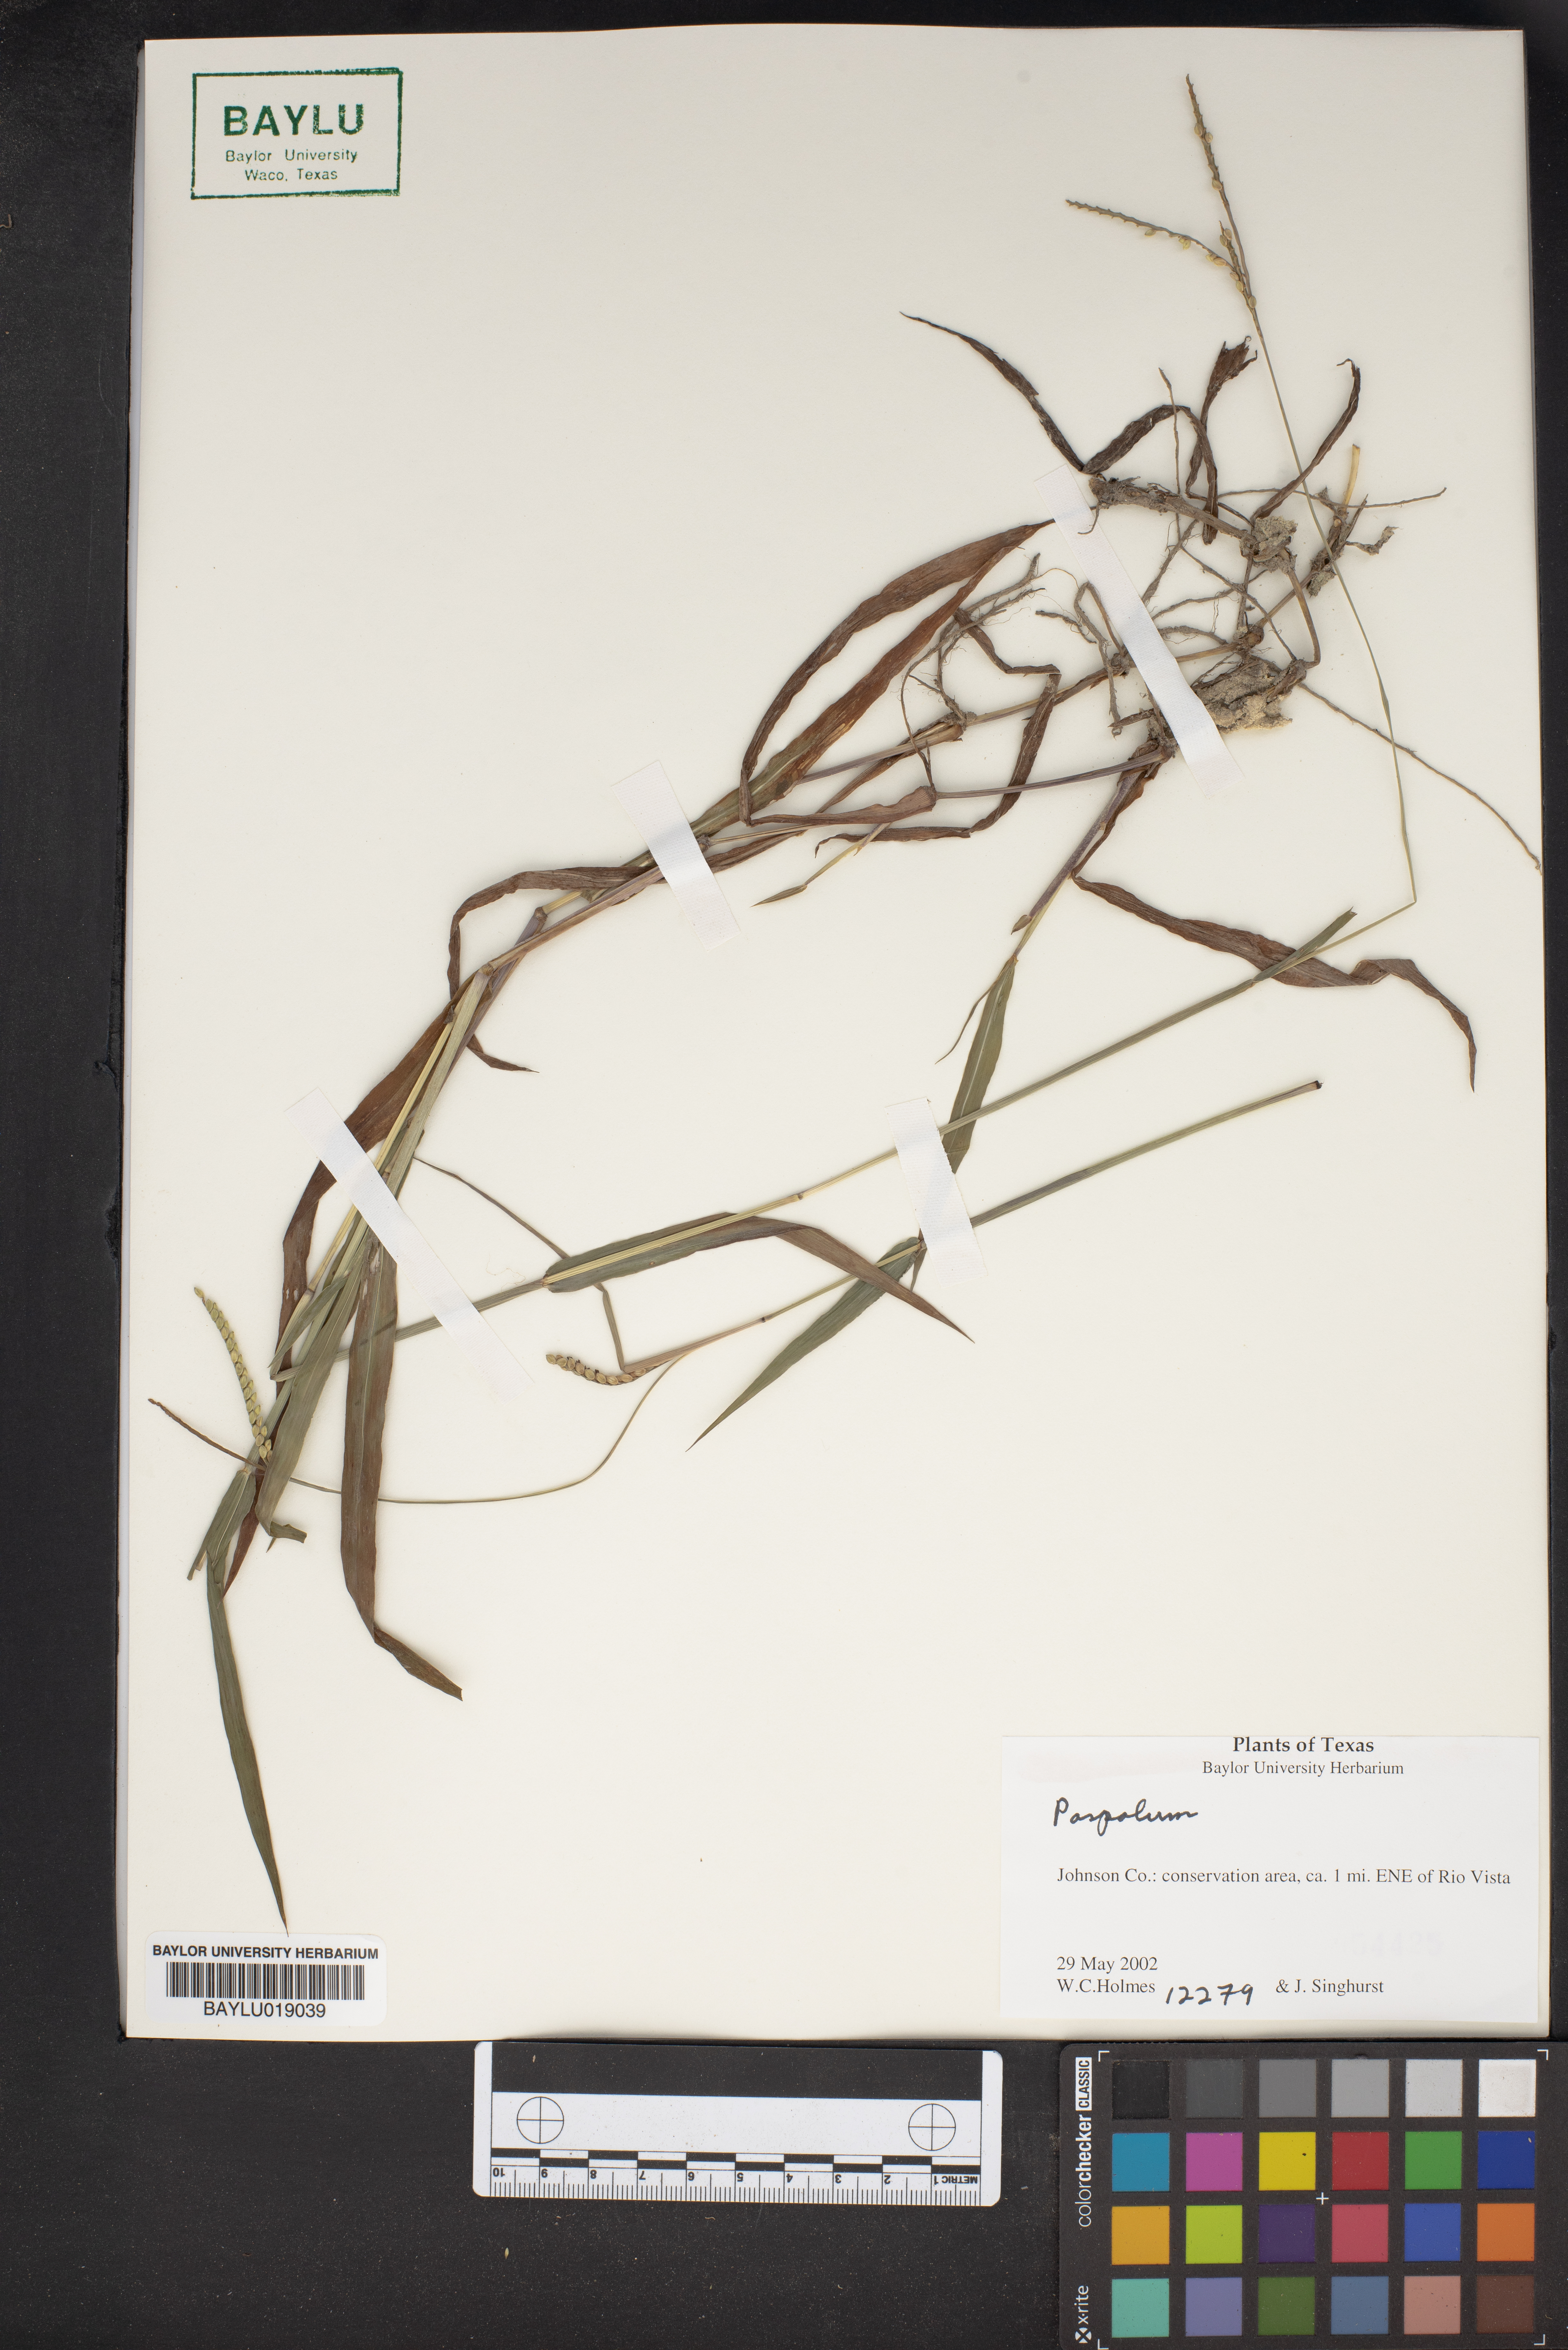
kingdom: Plantae
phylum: Tracheophyta
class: Liliopsida
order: Poales
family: Poaceae
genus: Paspalum
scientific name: Paspalum
